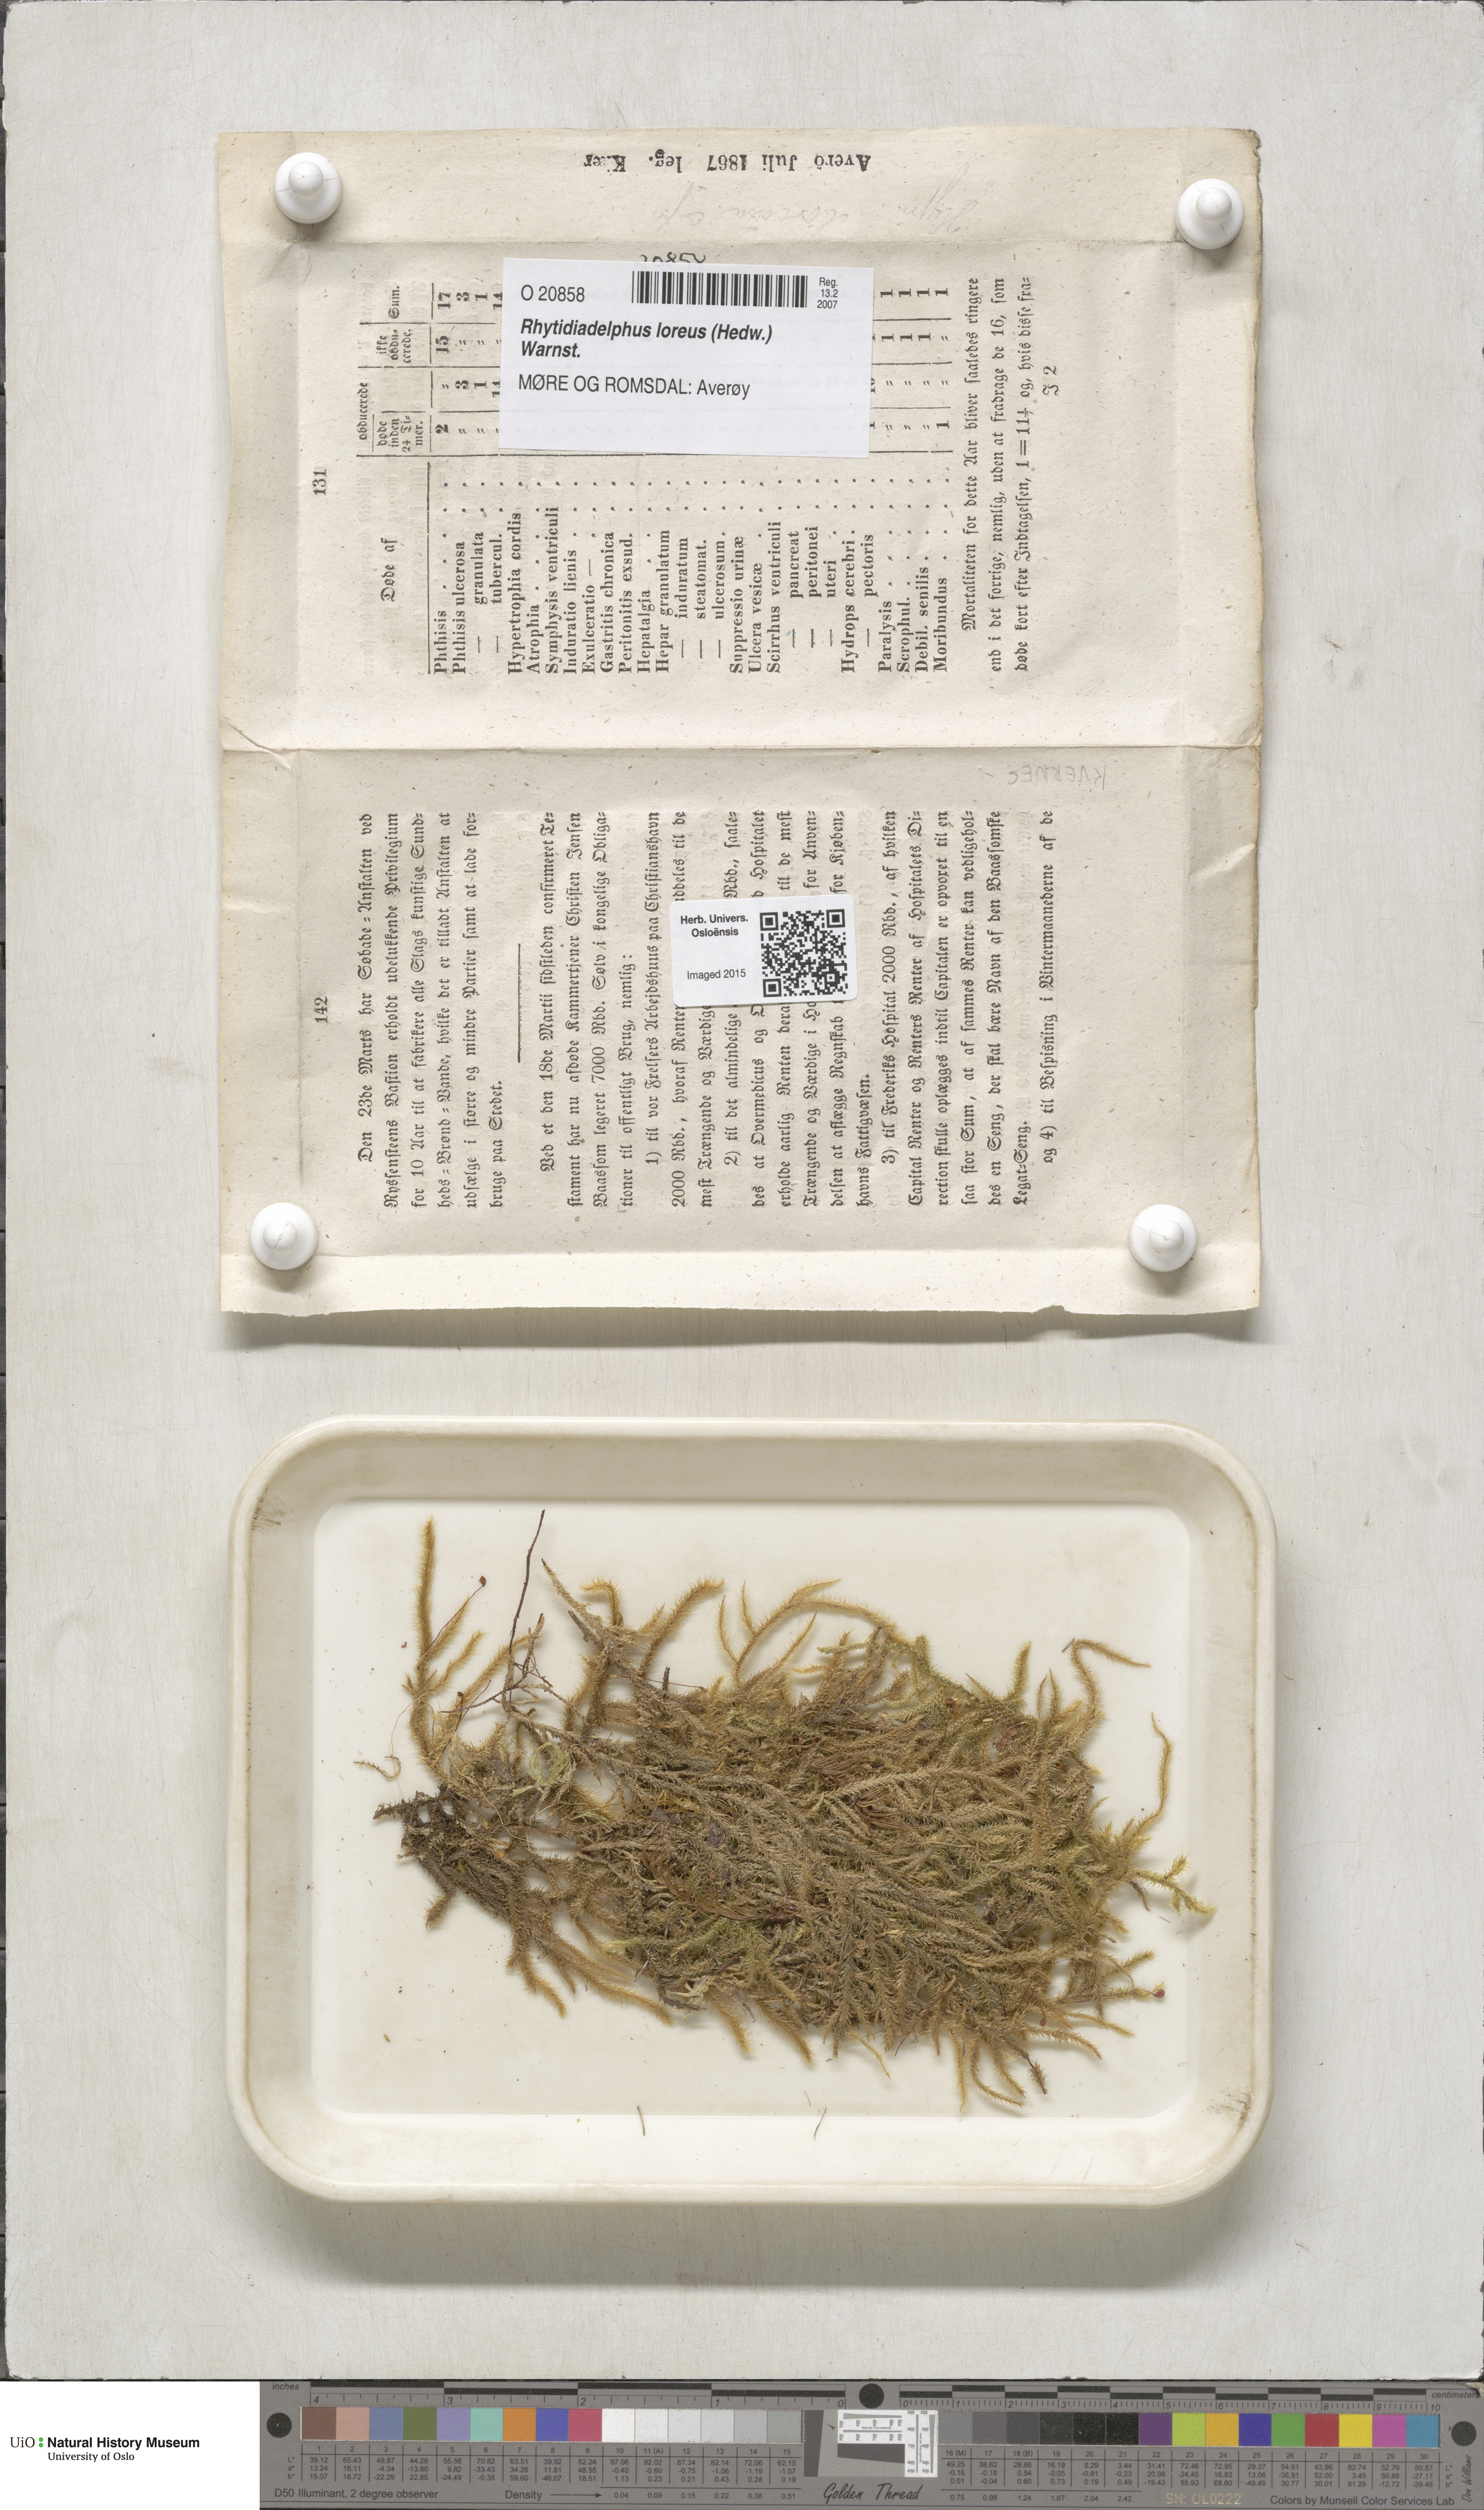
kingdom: Plantae
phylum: Bryophyta
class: Bryopsida
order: Hypnales
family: Hylocomiaceae
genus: Rhytidiadelphus
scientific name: Rhytidiadelphus loreus
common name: Lanky moss
